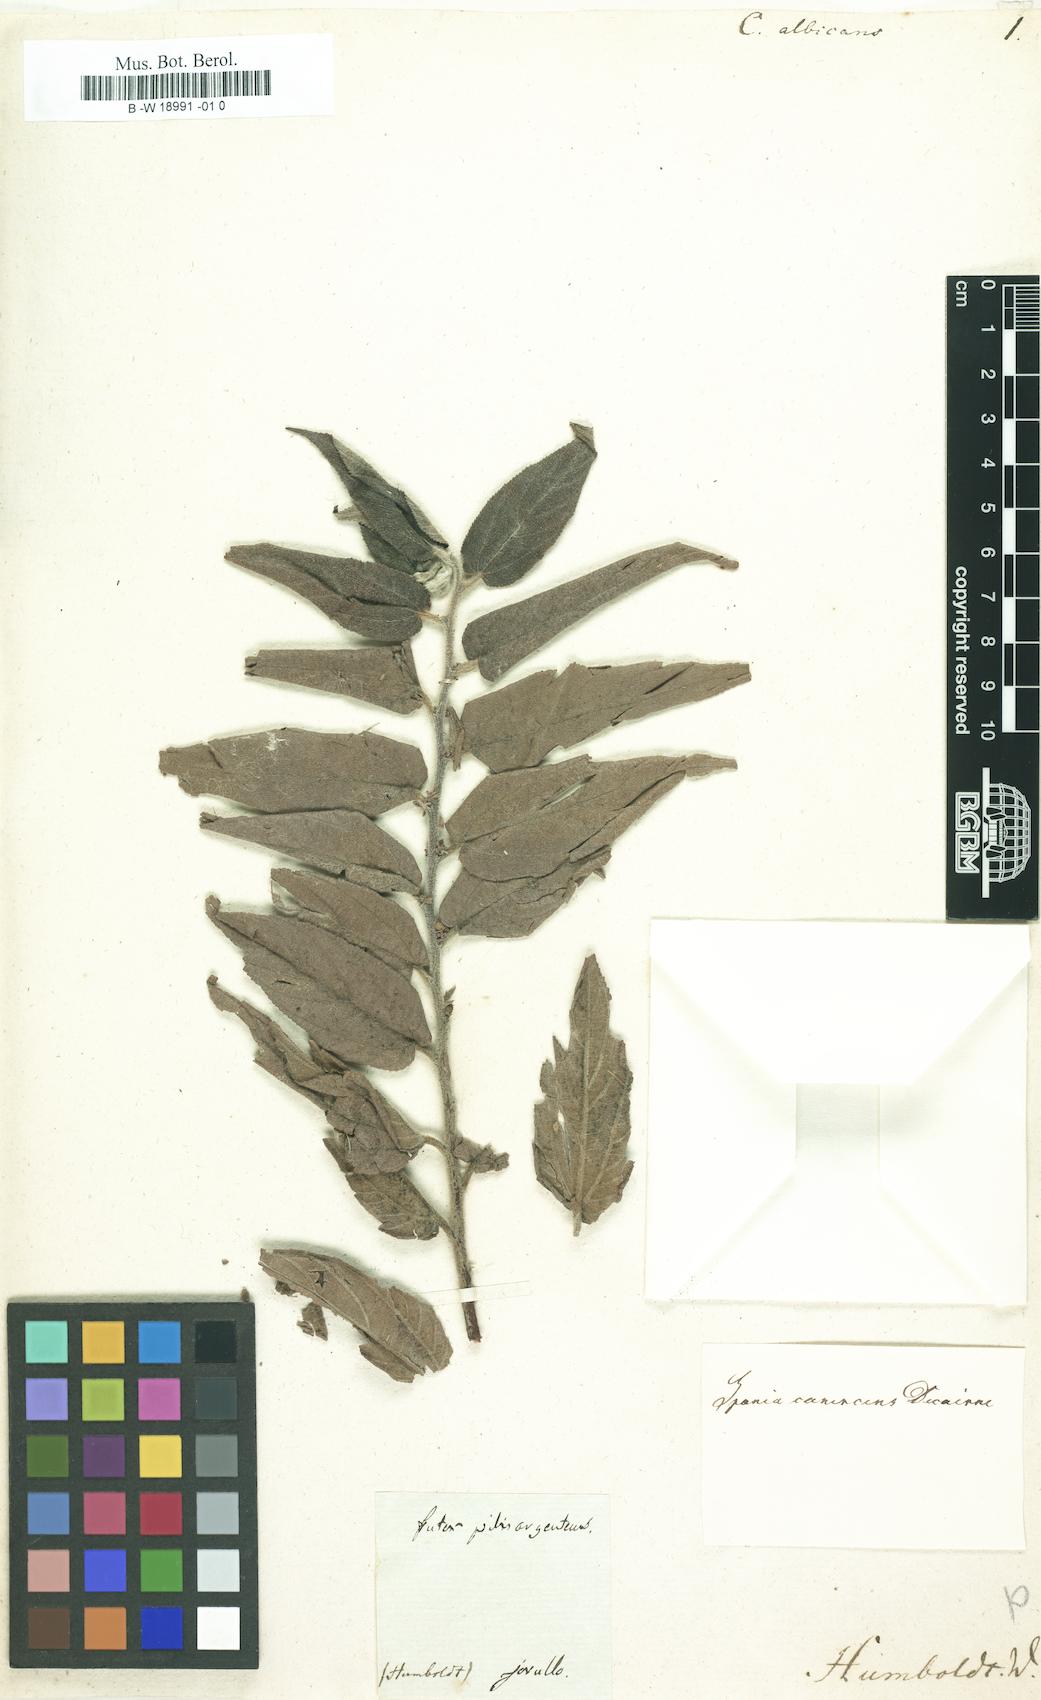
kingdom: Plantae
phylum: Tracheophyta
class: Magnoliopsida
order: Rosales
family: Cannabaceae
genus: Trema
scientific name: Trema micranthum
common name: Jamaican nettletree
